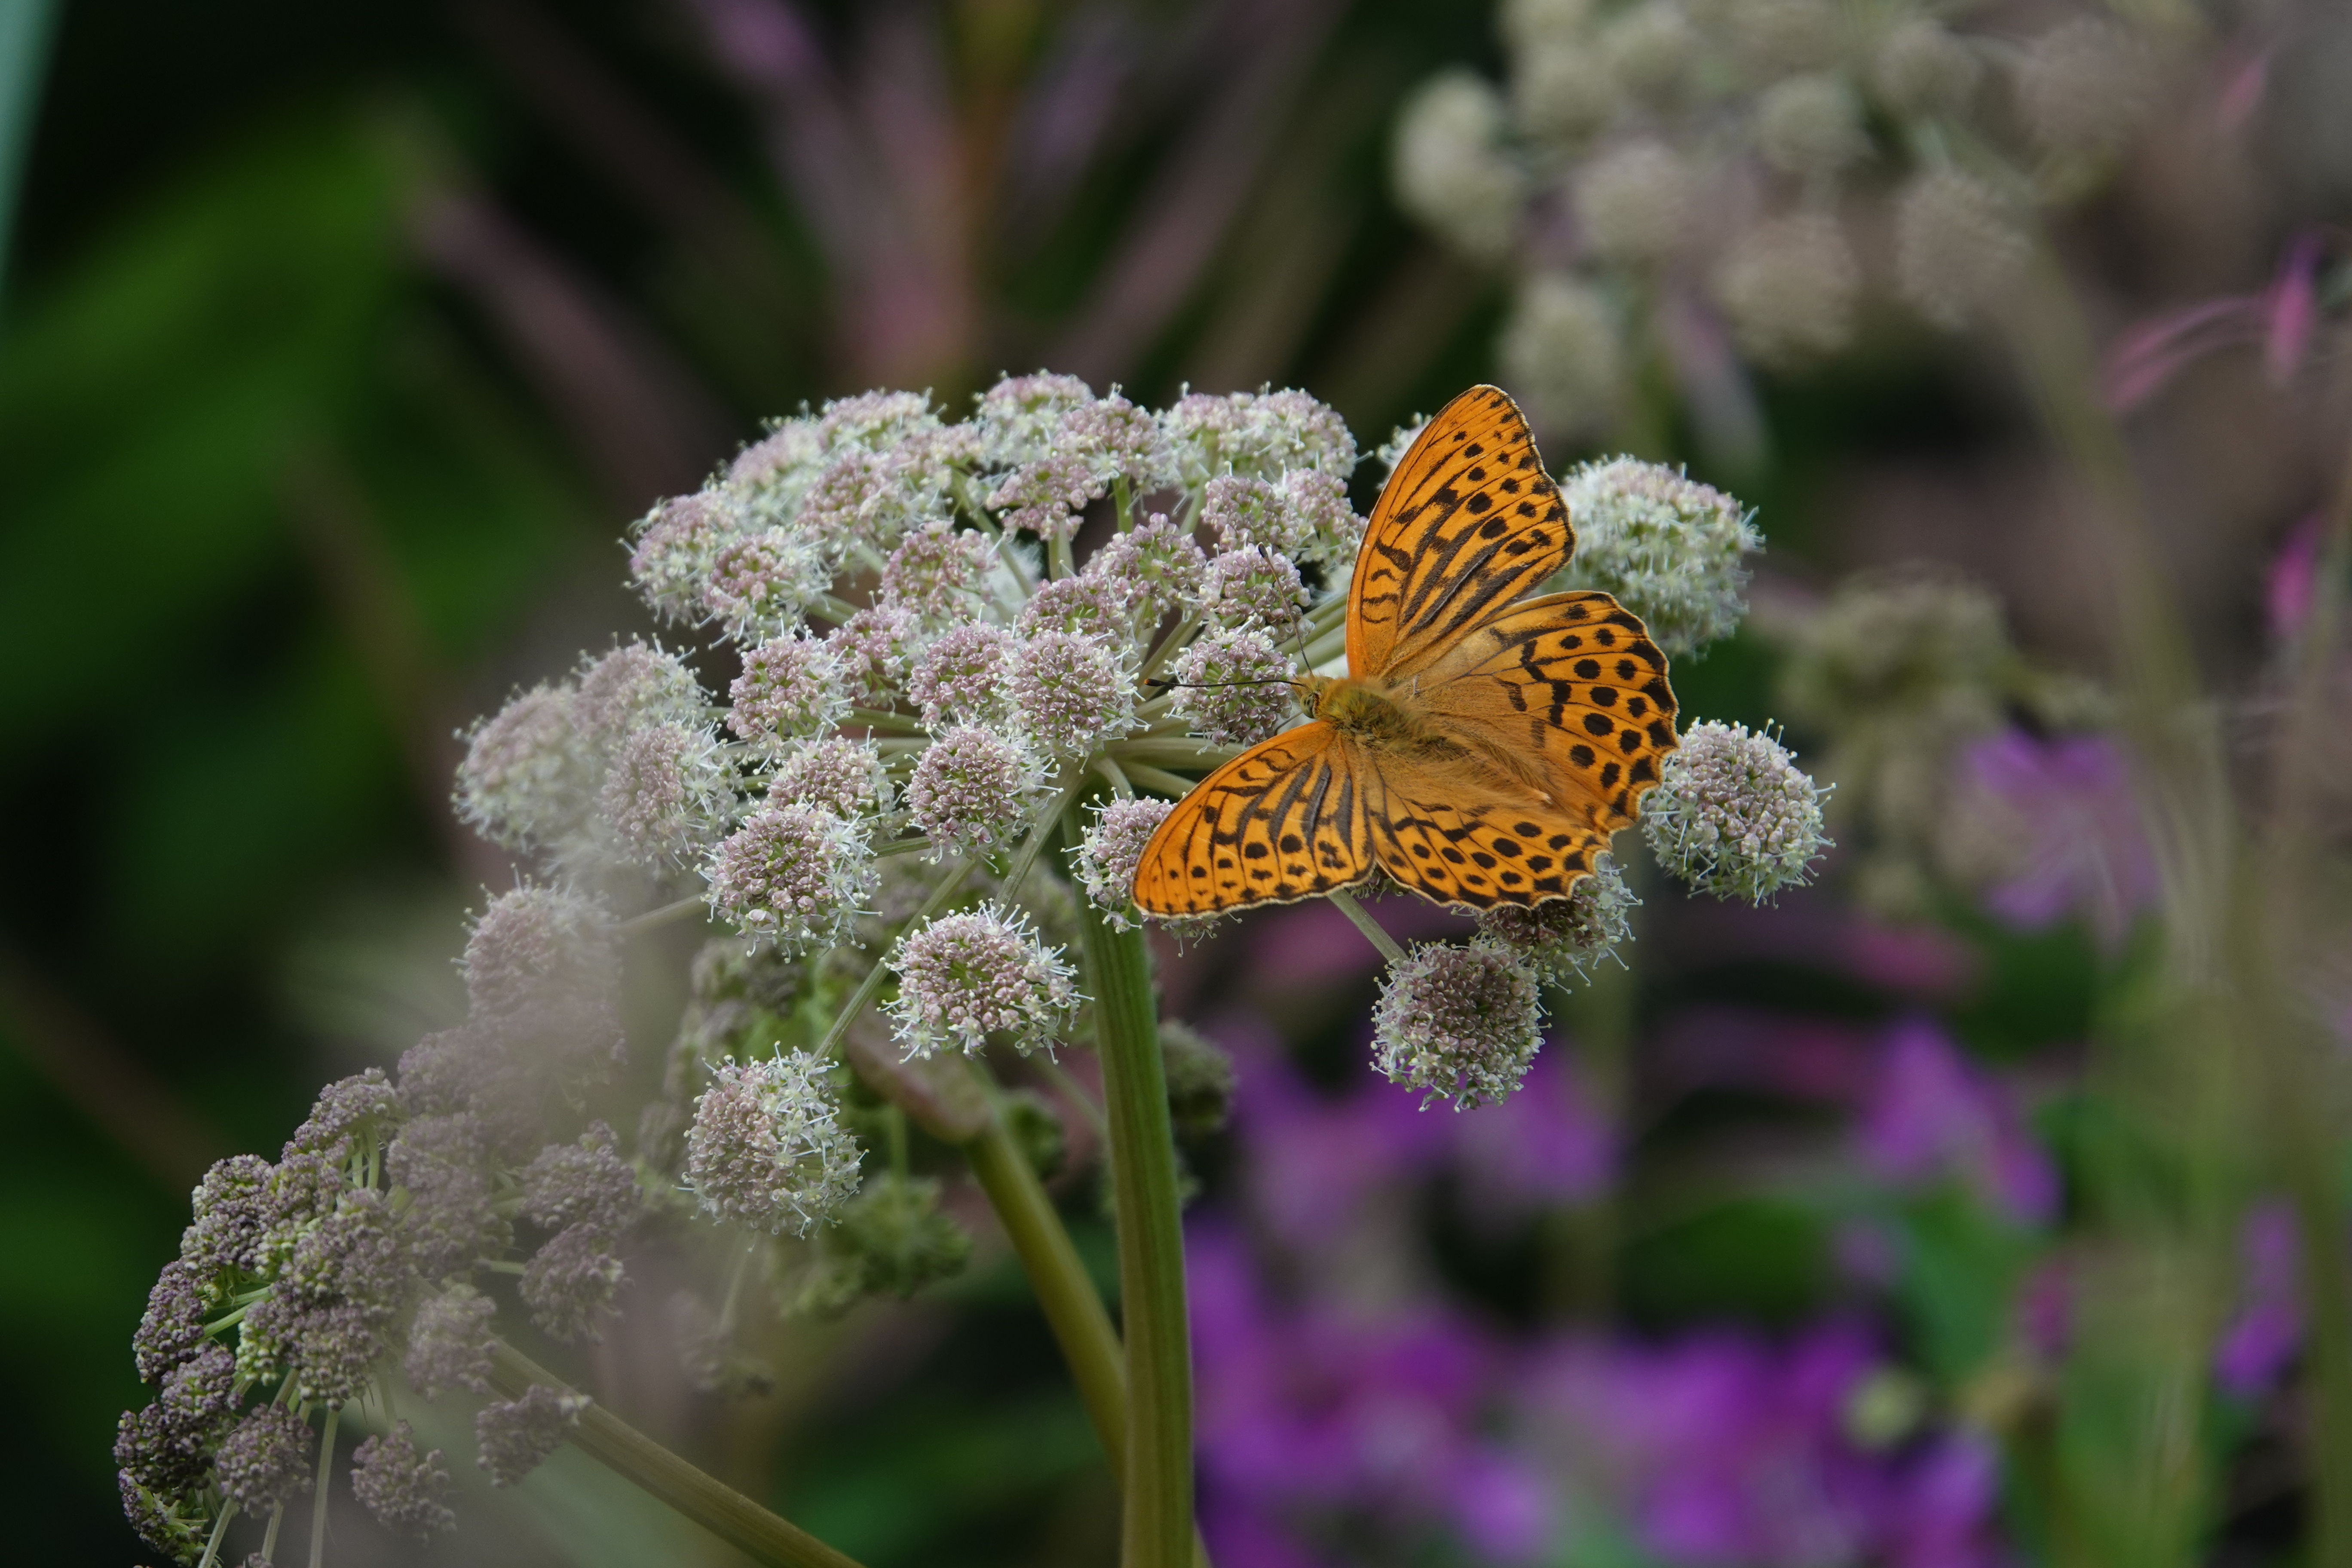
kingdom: Animalia
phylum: Arthropoda
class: Insecta
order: Lepidoptera
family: Nymphalidae
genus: Argynnis
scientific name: Argynnis paphia
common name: Silver-washed fritillary
